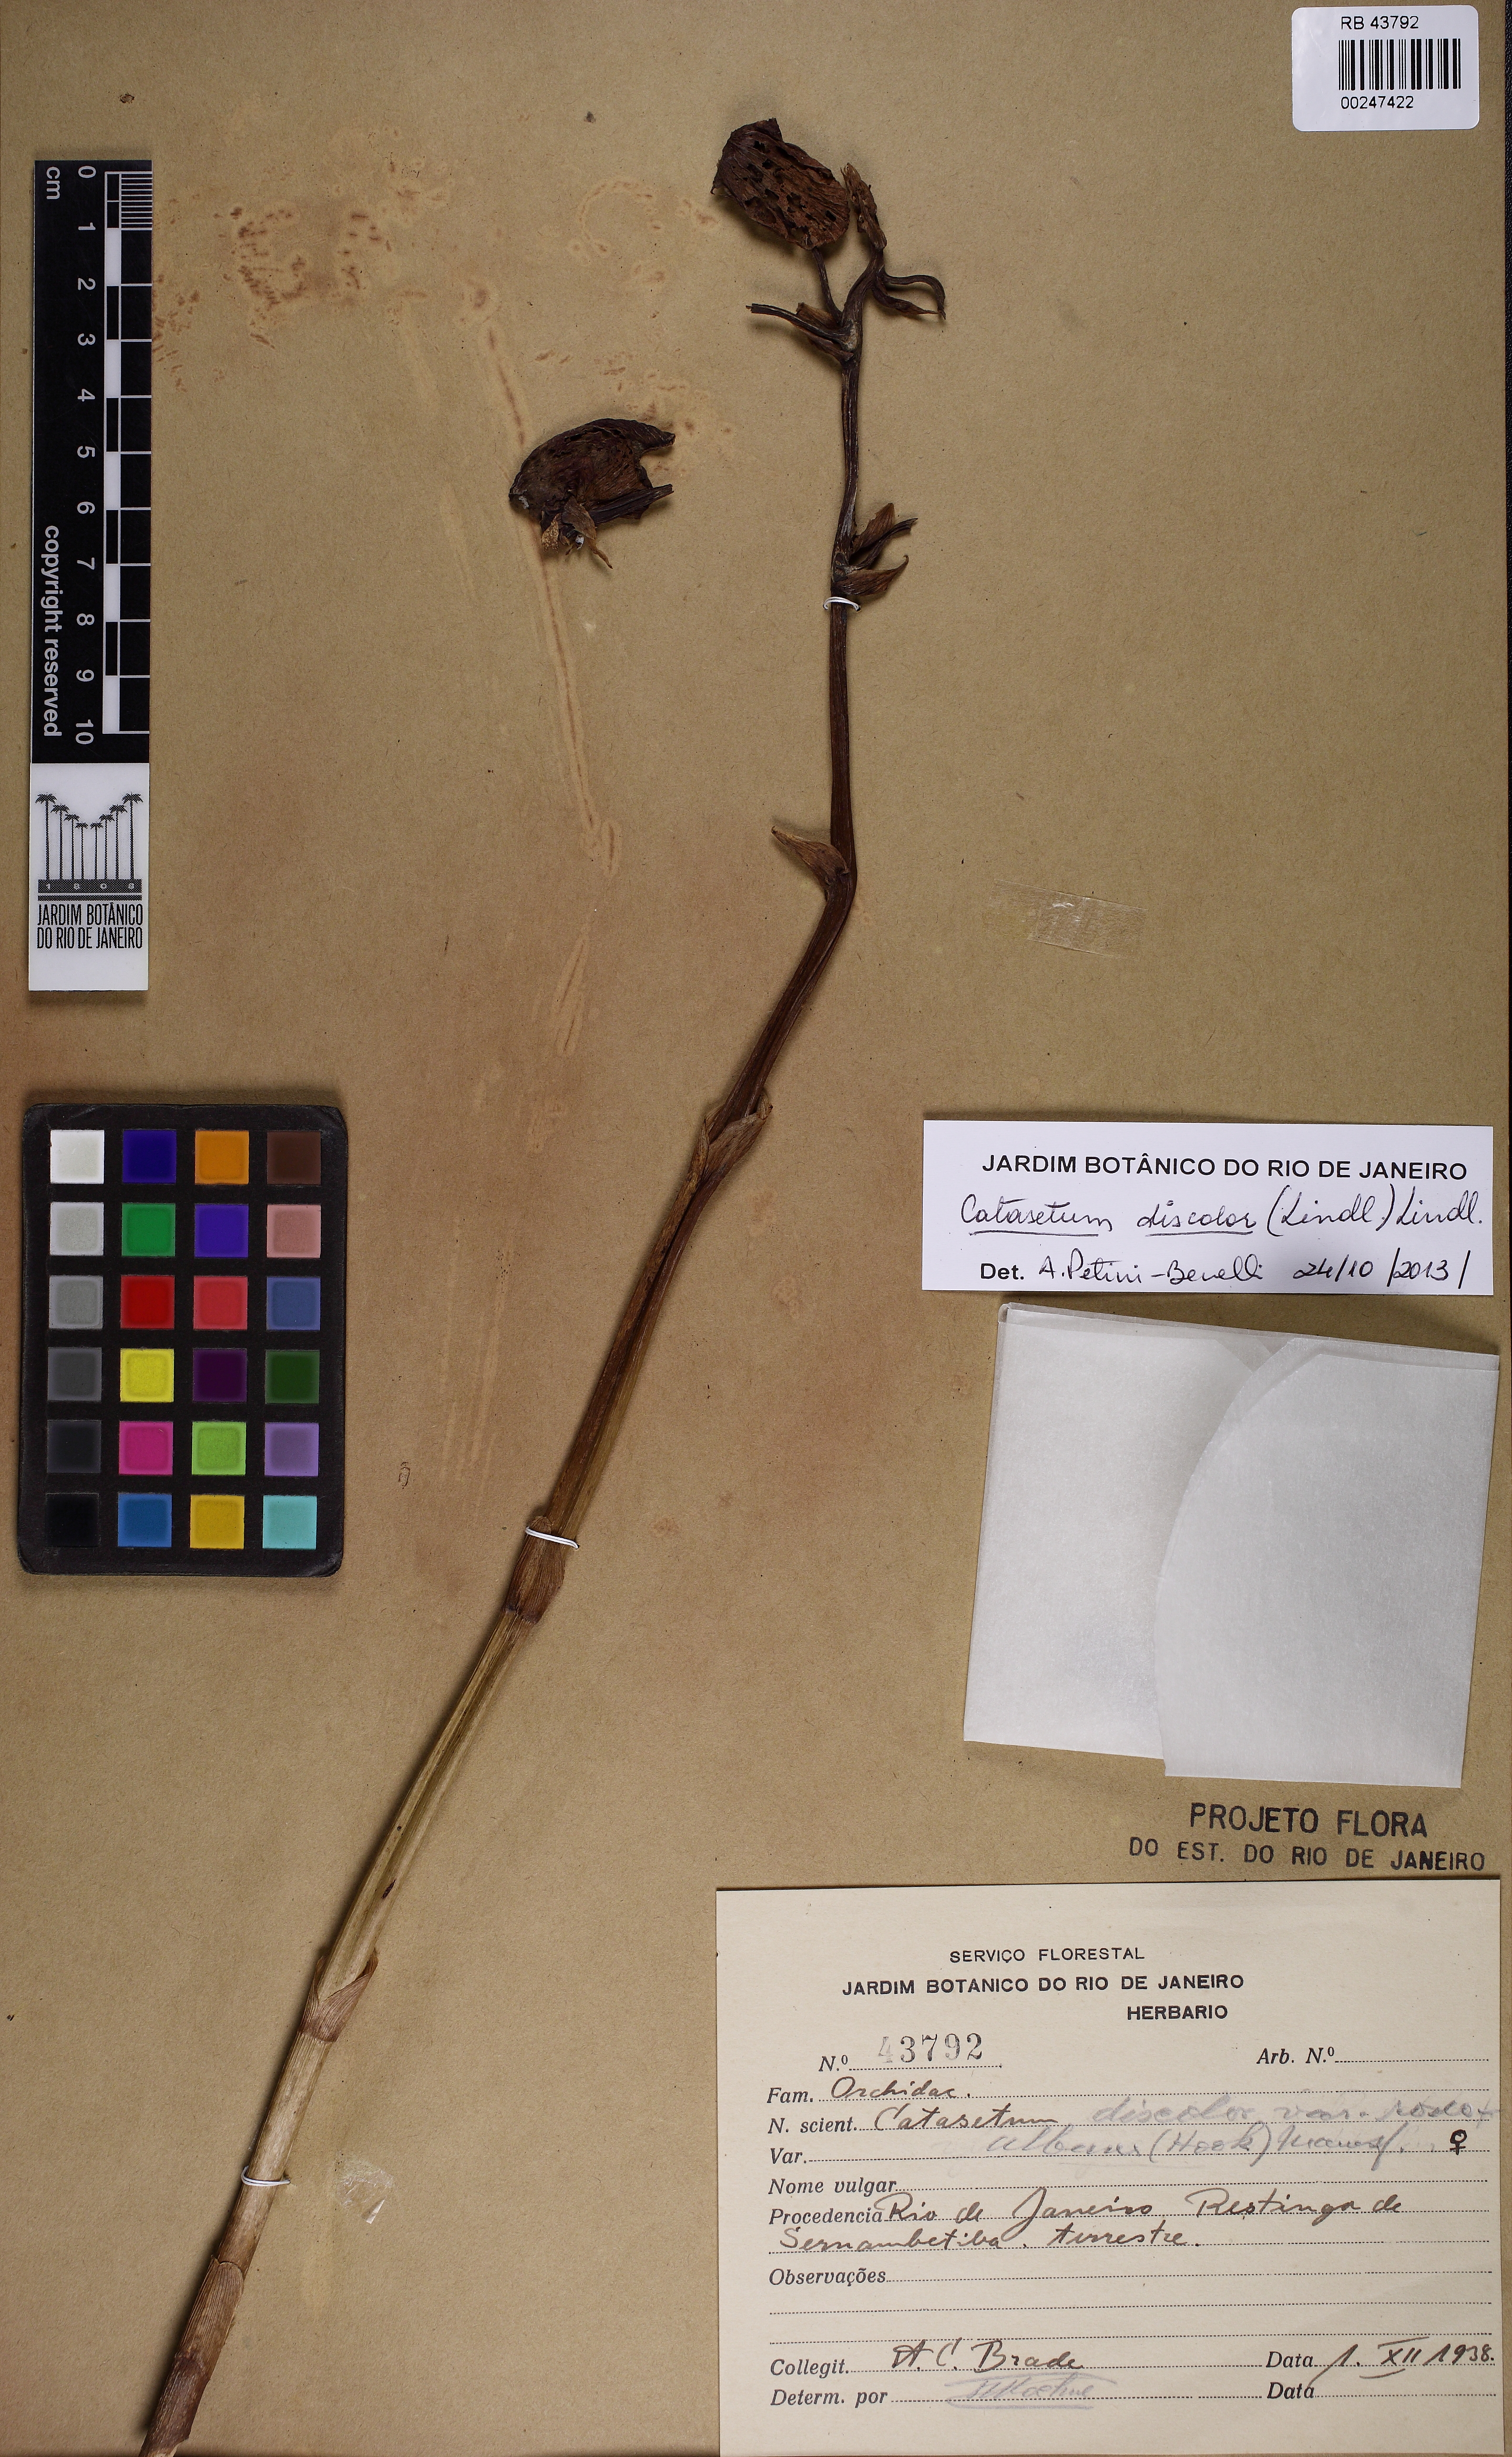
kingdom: Plantae
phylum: Tracheophyta
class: Liliopsida
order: Asparagales
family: Orchidaceae
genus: Catasetum
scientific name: Catasetum discolor
